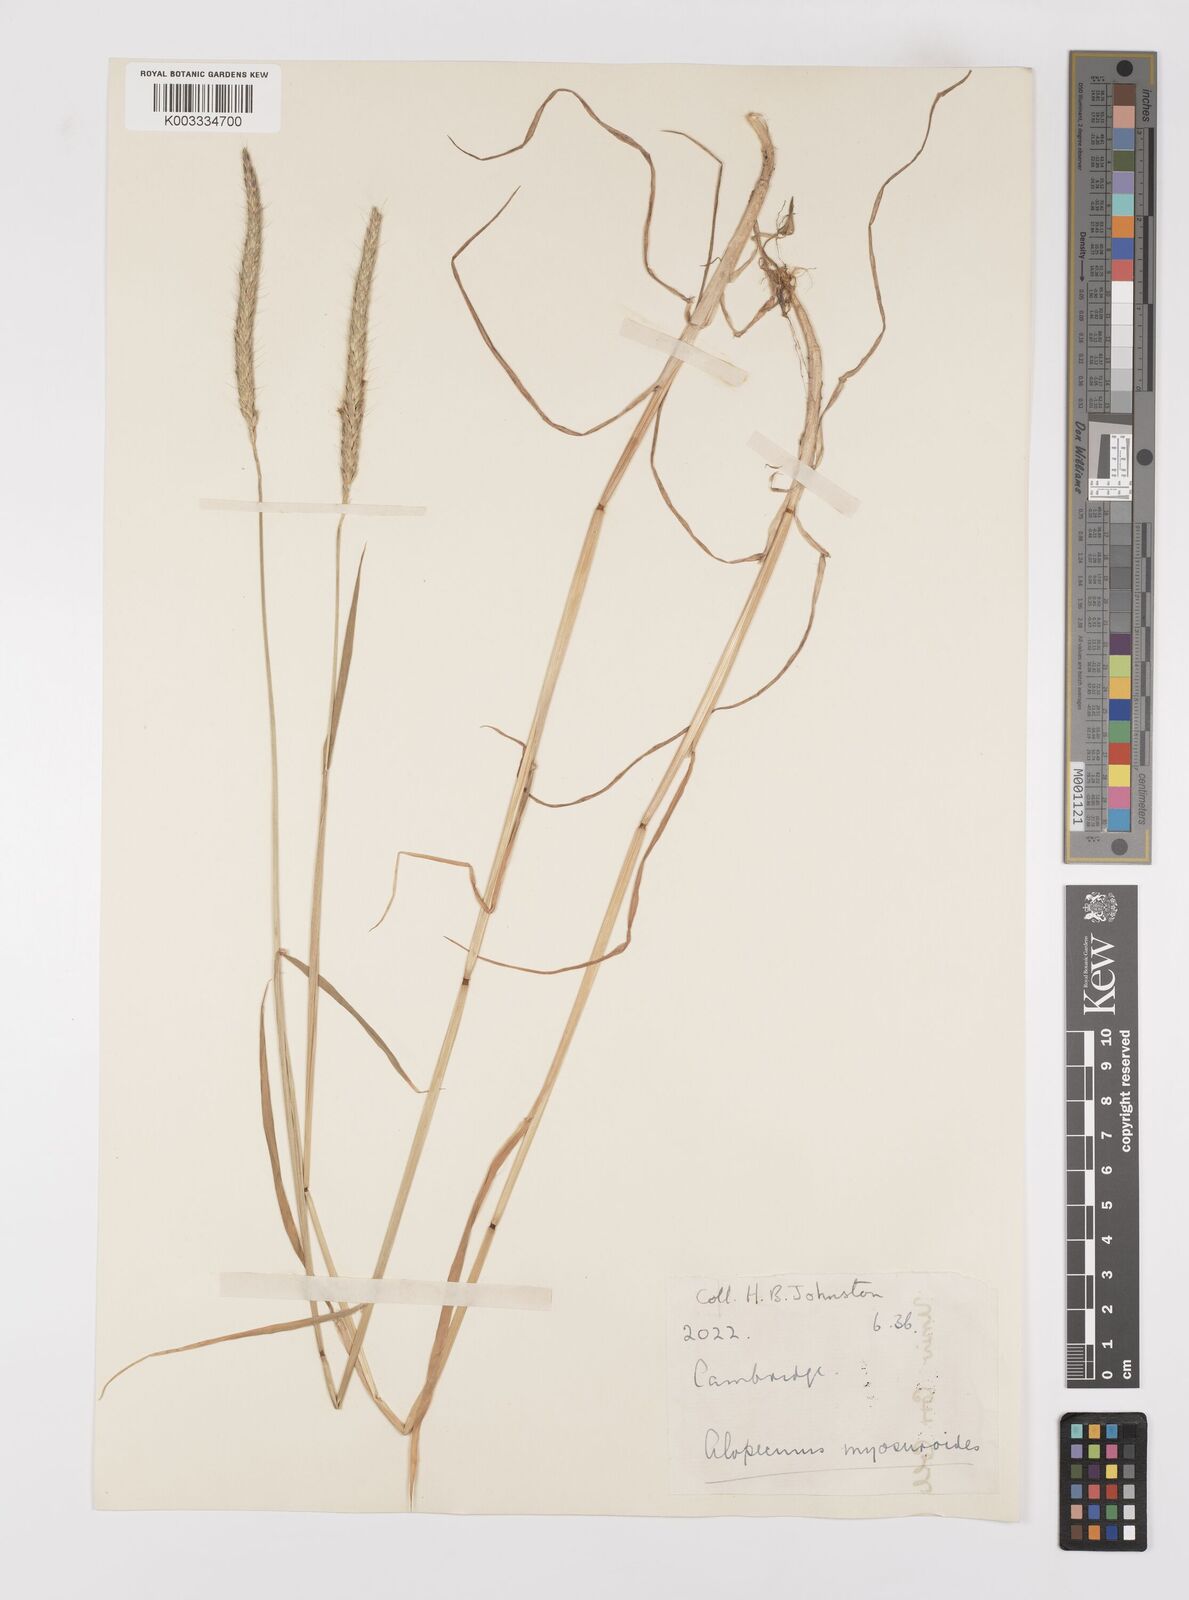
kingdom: Plantae
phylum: Tracheophyta
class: Liliopsida
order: Poales
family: Poaceae
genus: Alopecurus
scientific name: Alopecurus myosuroides
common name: Black-grass
